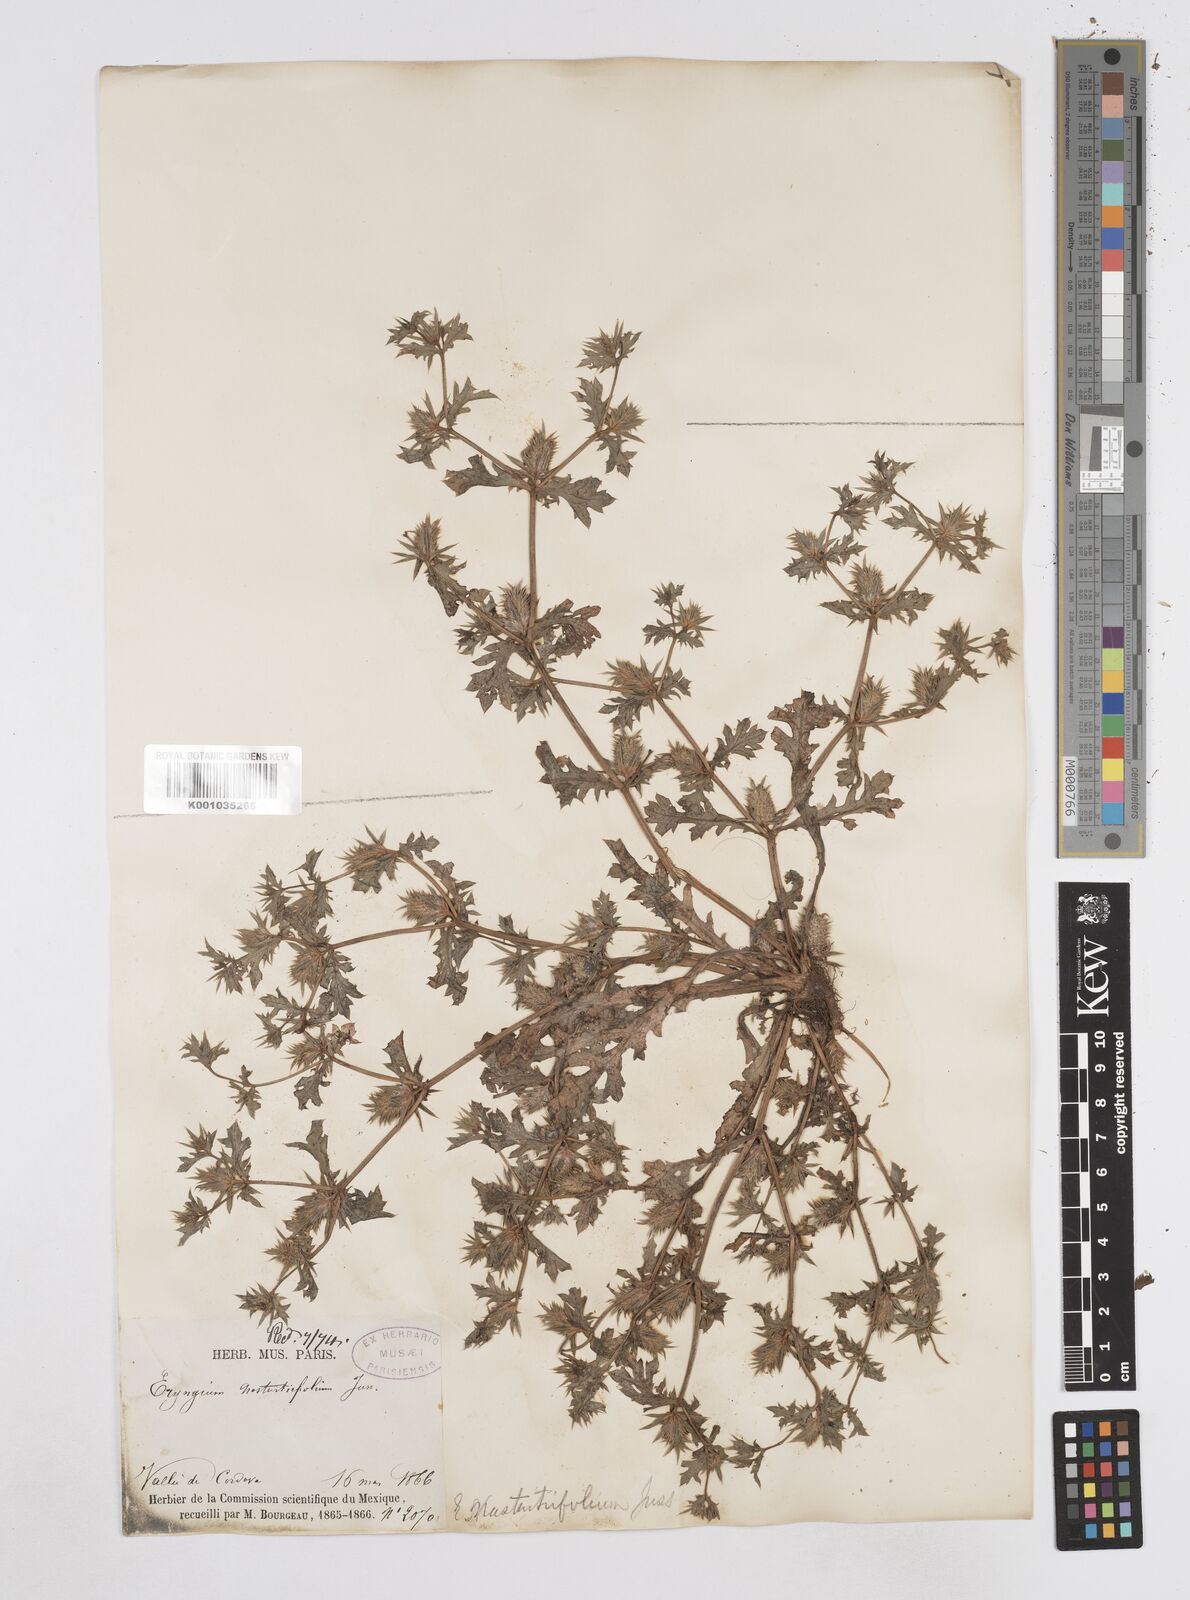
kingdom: Plantae
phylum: Tracheophyta
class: Magnoliopsida
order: Apiales
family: Apiaceae
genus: Eryngium
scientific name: Eryngium nasturtiifolium
